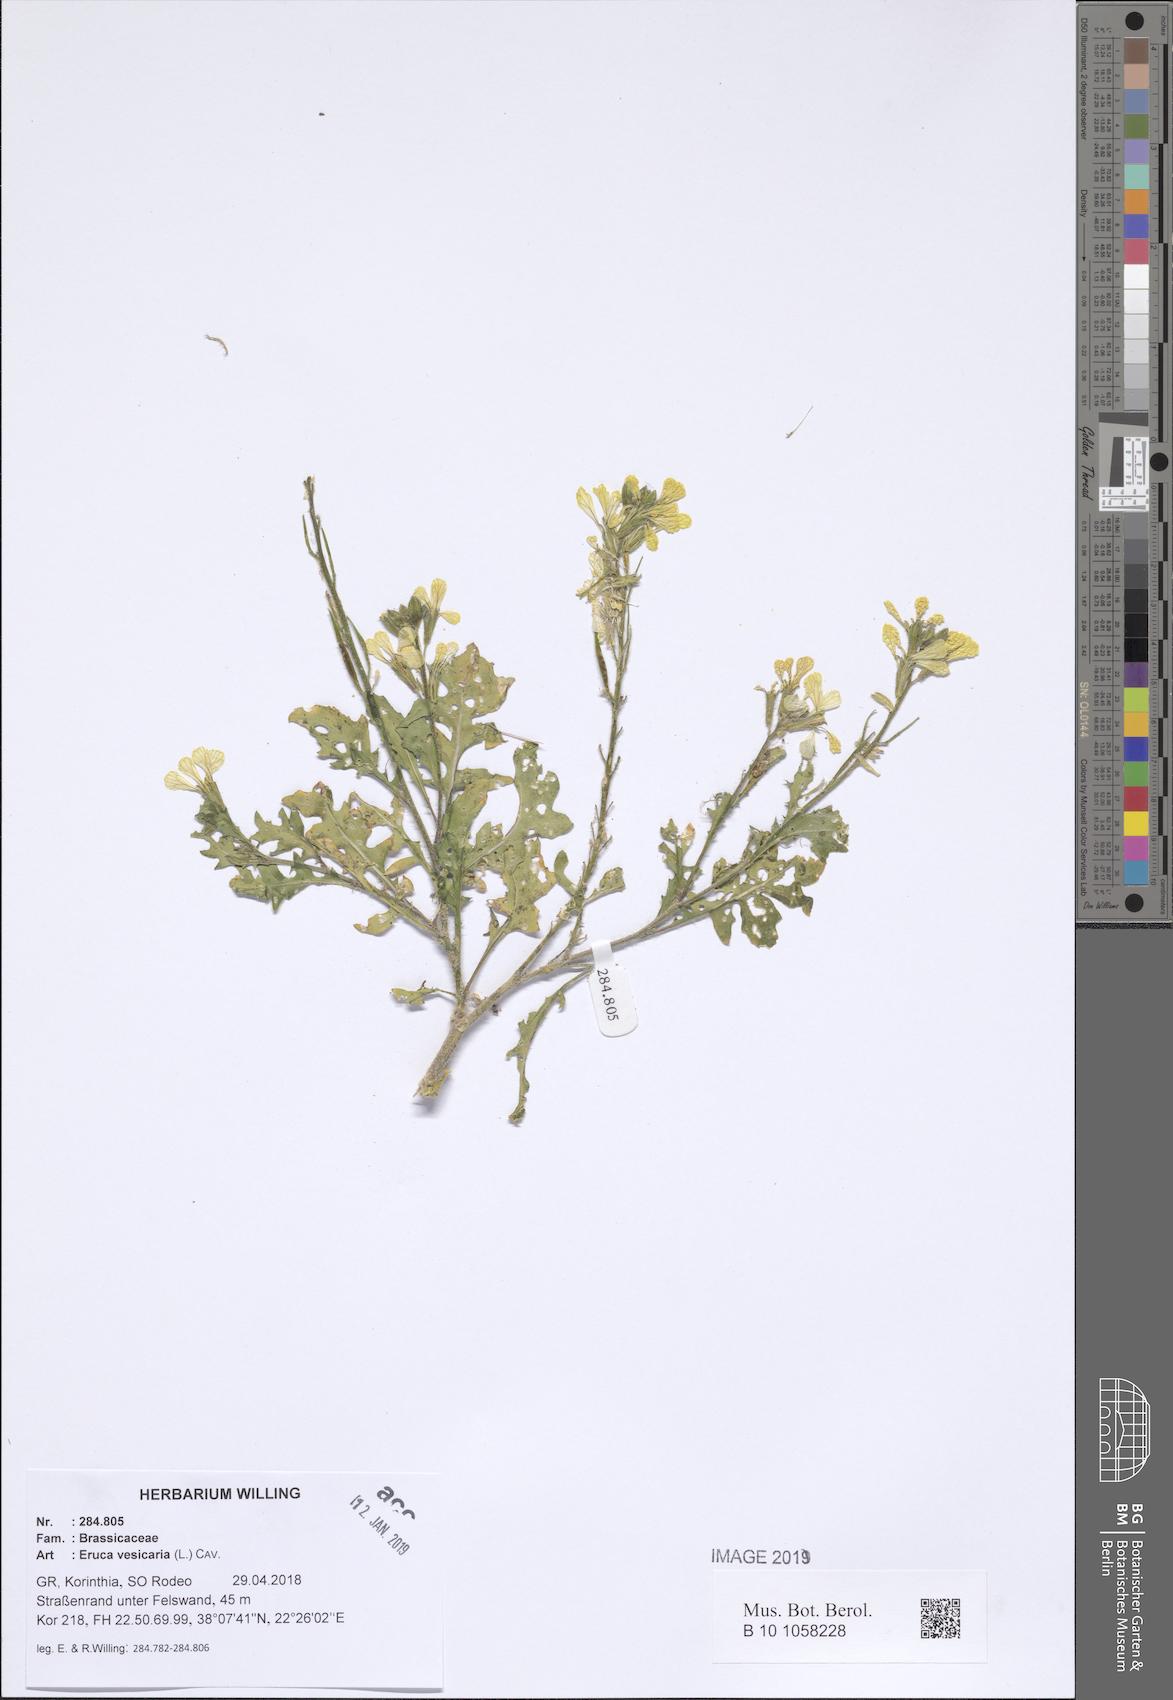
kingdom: Plantae
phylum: Tracheophyta
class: Magnoliopsida
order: Brassicales
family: Brassicaceae
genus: Eruca
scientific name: Eruca vesicaria
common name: Garden rocket
